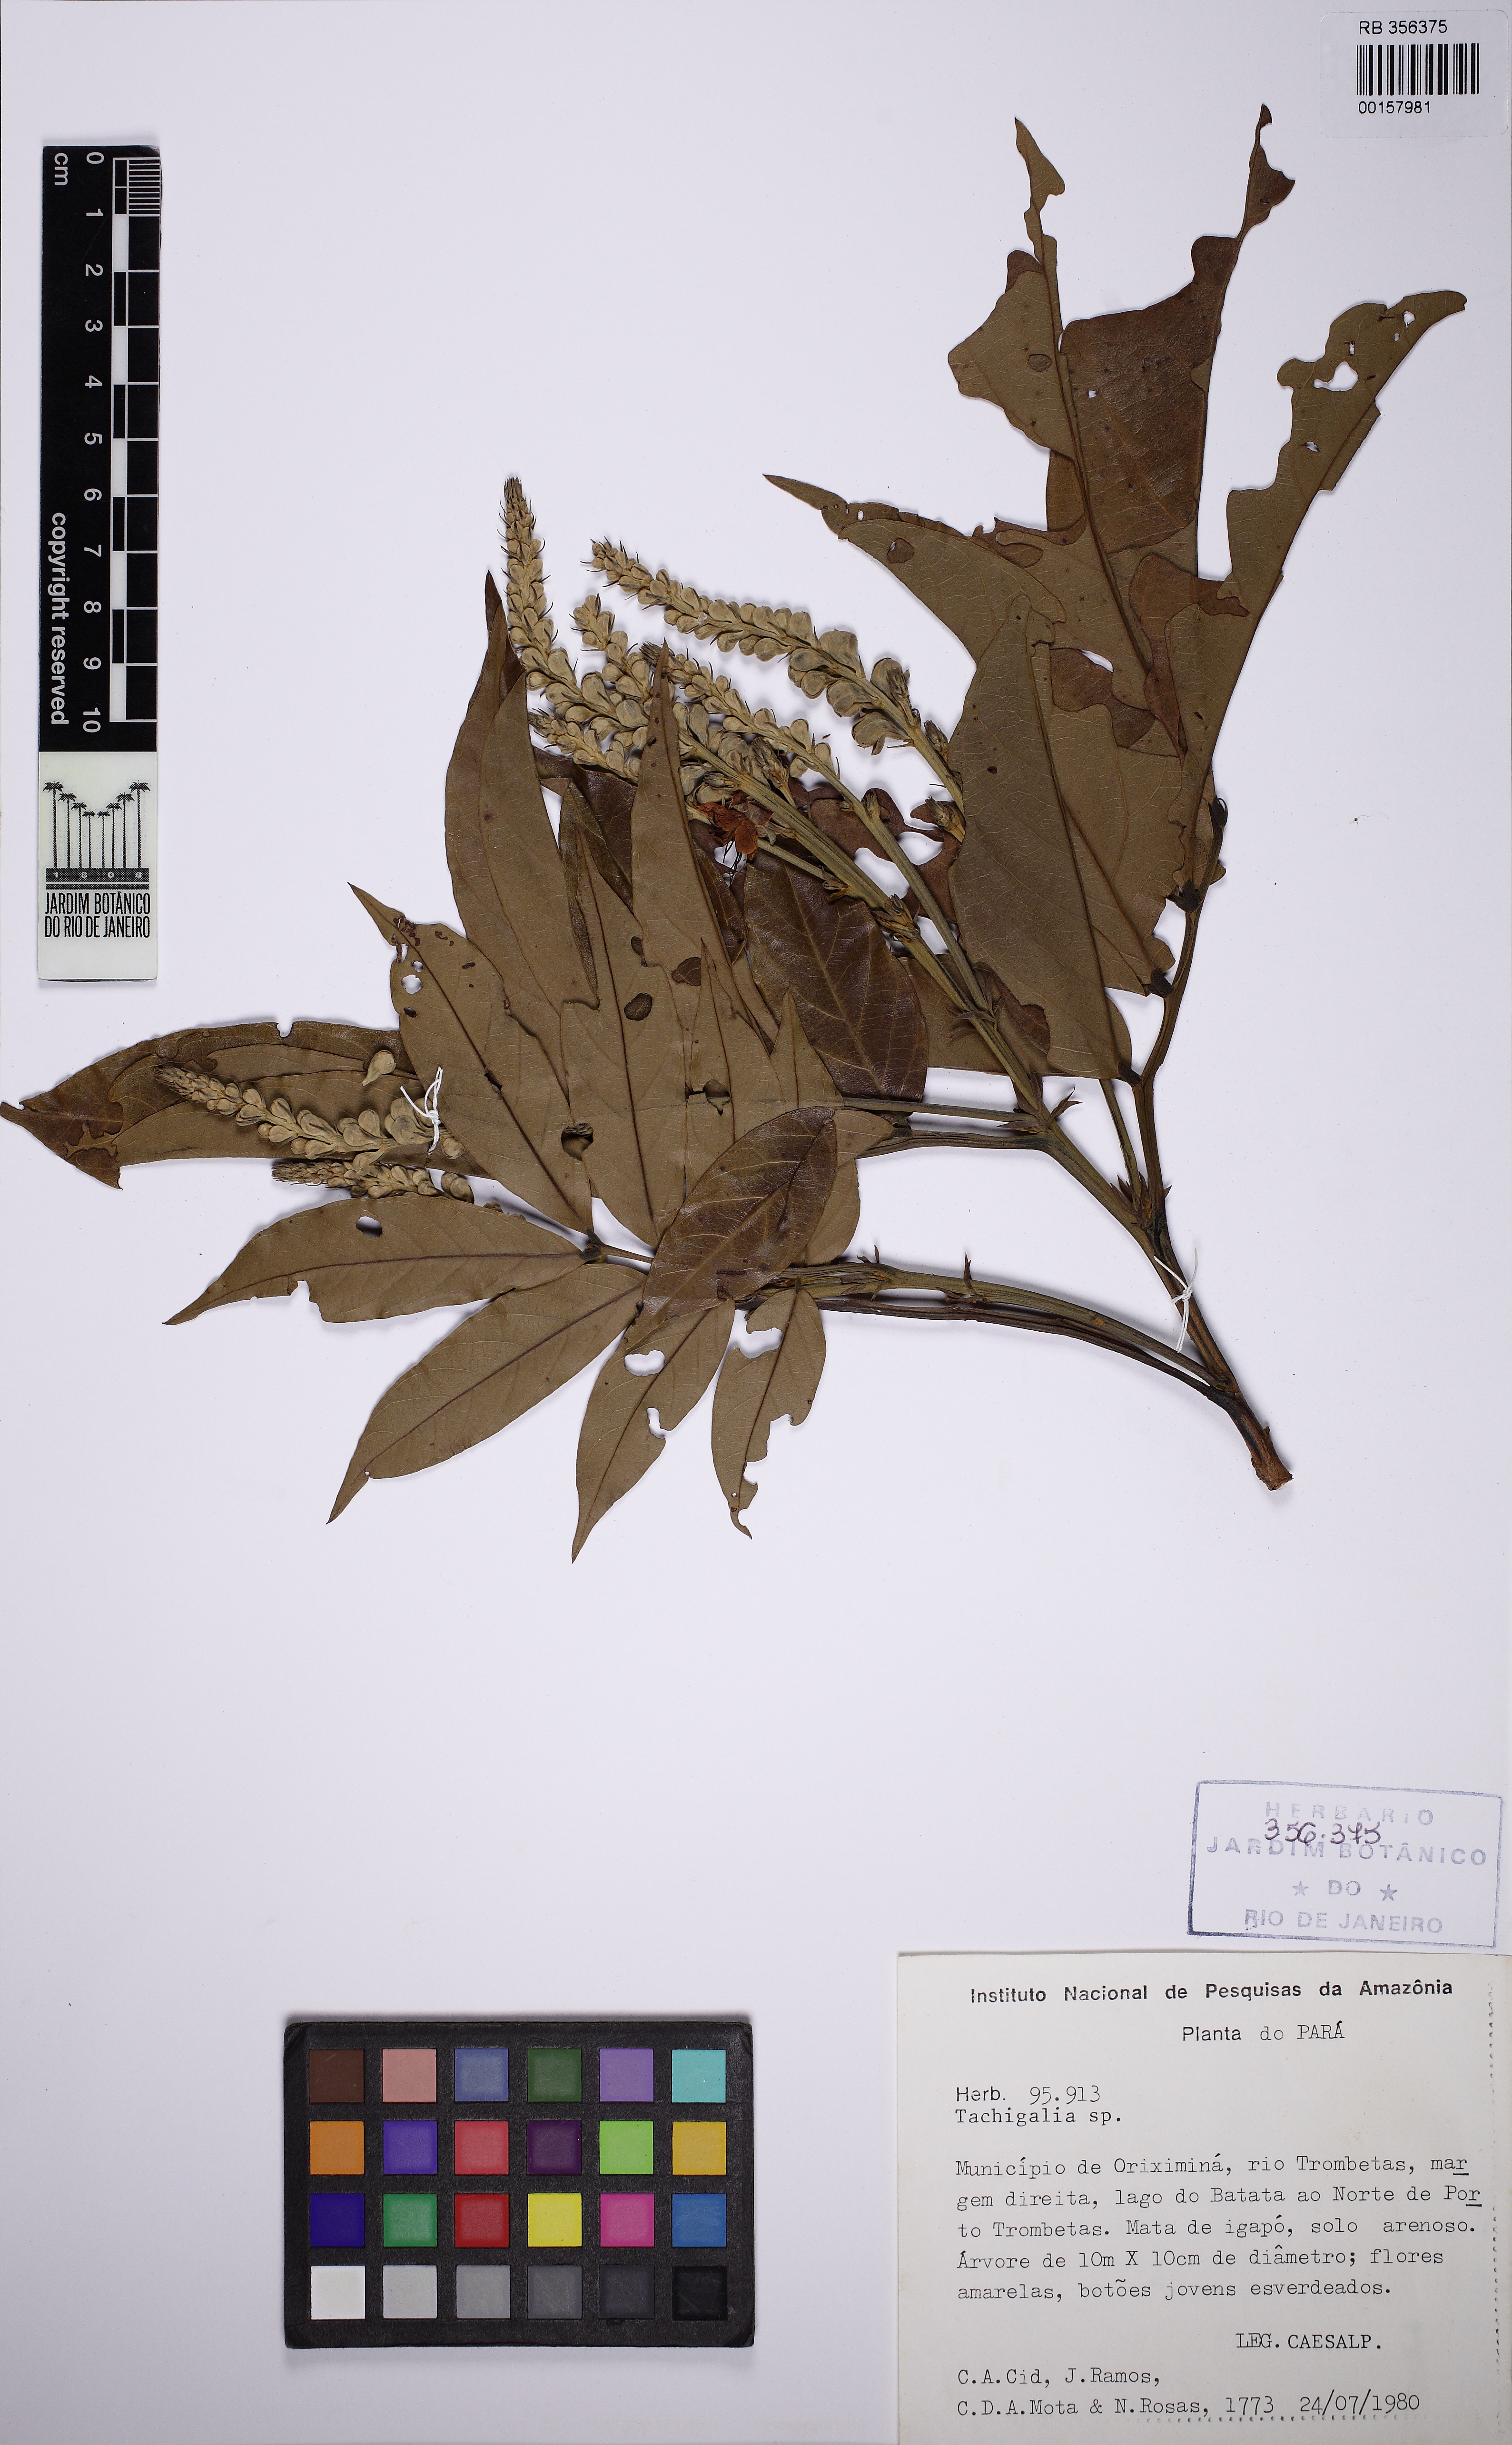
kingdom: Plantae
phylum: Tracheophyta
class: Magnoliopsida
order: Fabales
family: Fabaceae
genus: Tachigali
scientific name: Tachigali paniculata
